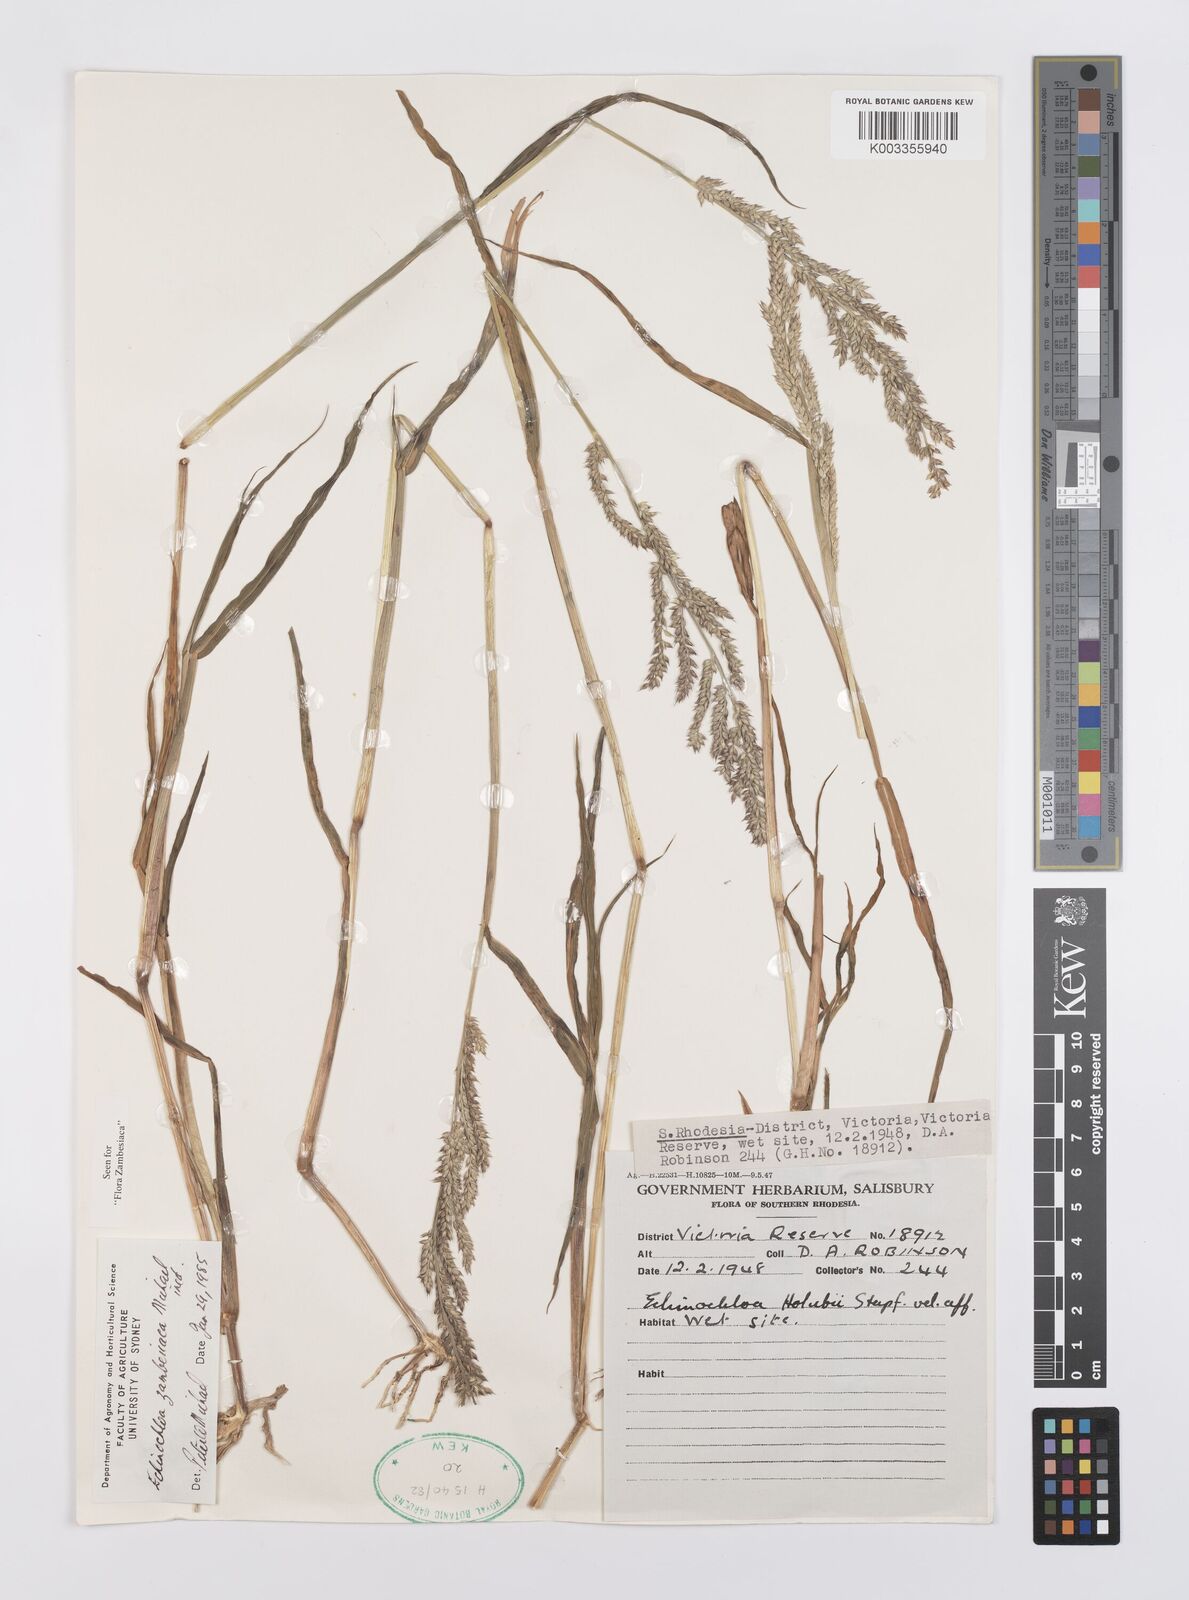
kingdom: Plantae
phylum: Tracheophyta
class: Liliopsida
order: Poales
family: Poaceae
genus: Echinochloa
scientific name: Echinochloa ugandensis
